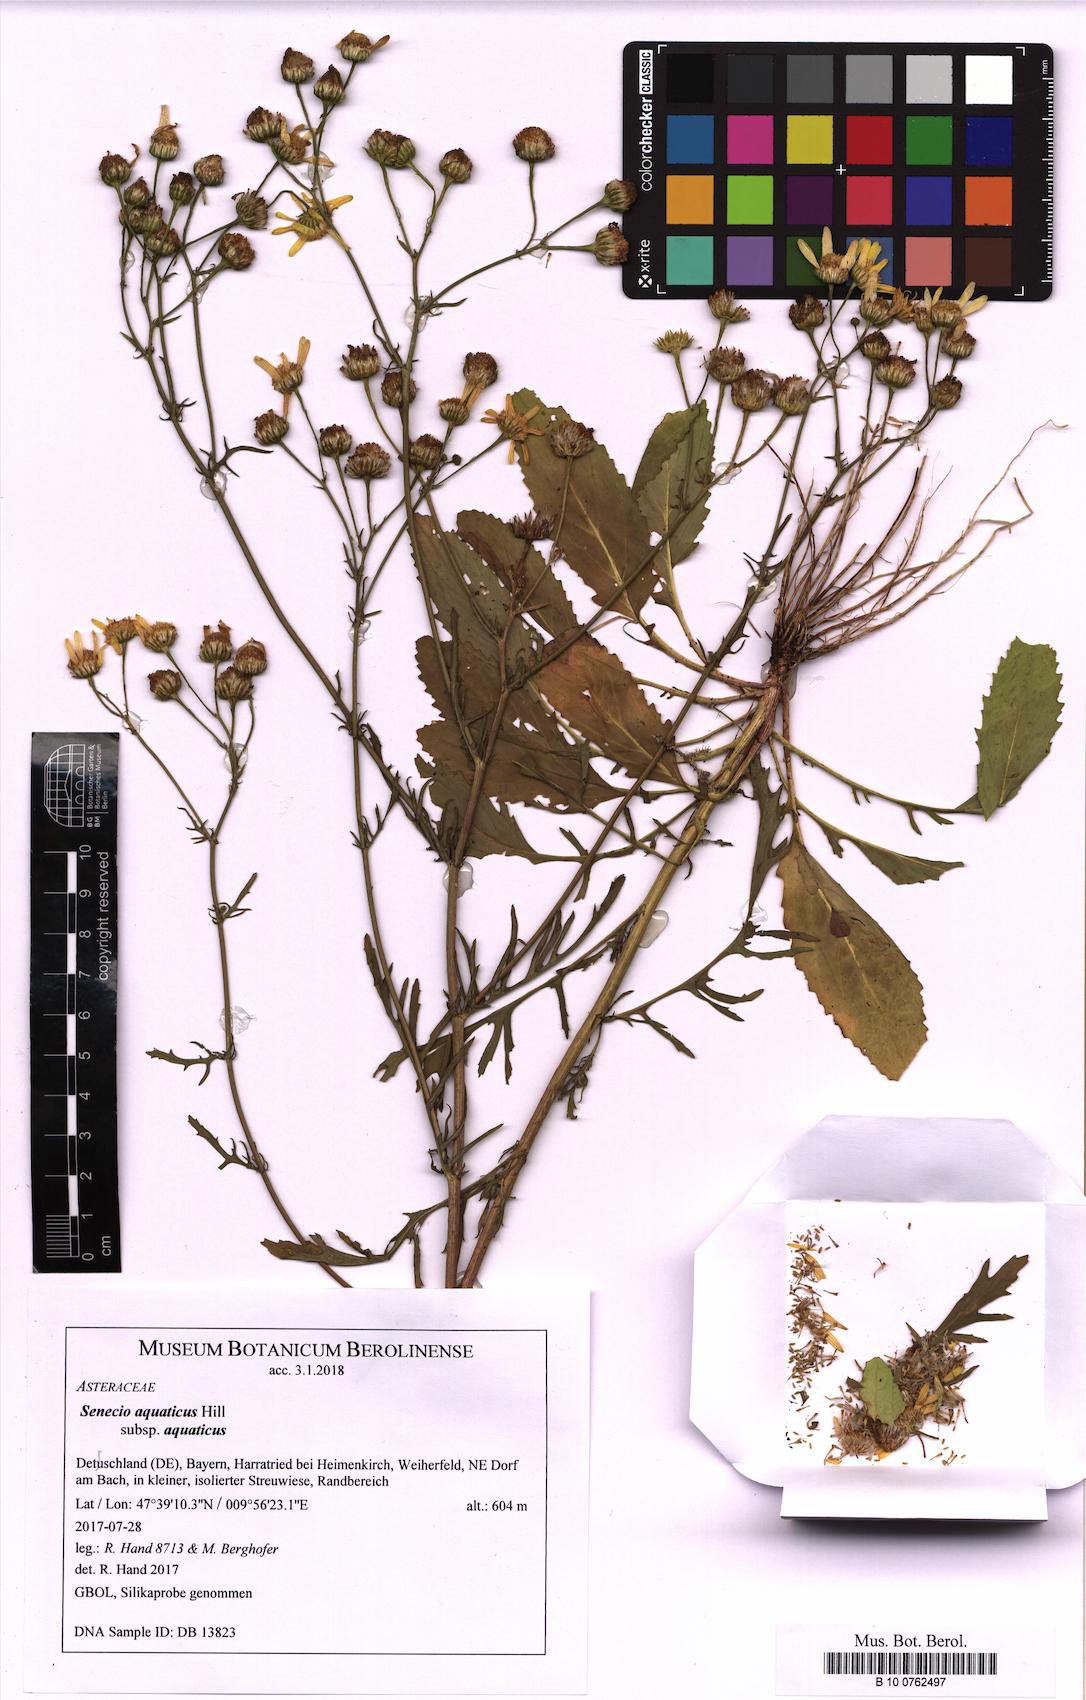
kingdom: Plantae
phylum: Tracheophyta
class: Magnoliopsida
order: Asterales
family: Asteraceae
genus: Jacobaea
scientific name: Jacobaea aquatica
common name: Water ragwort
